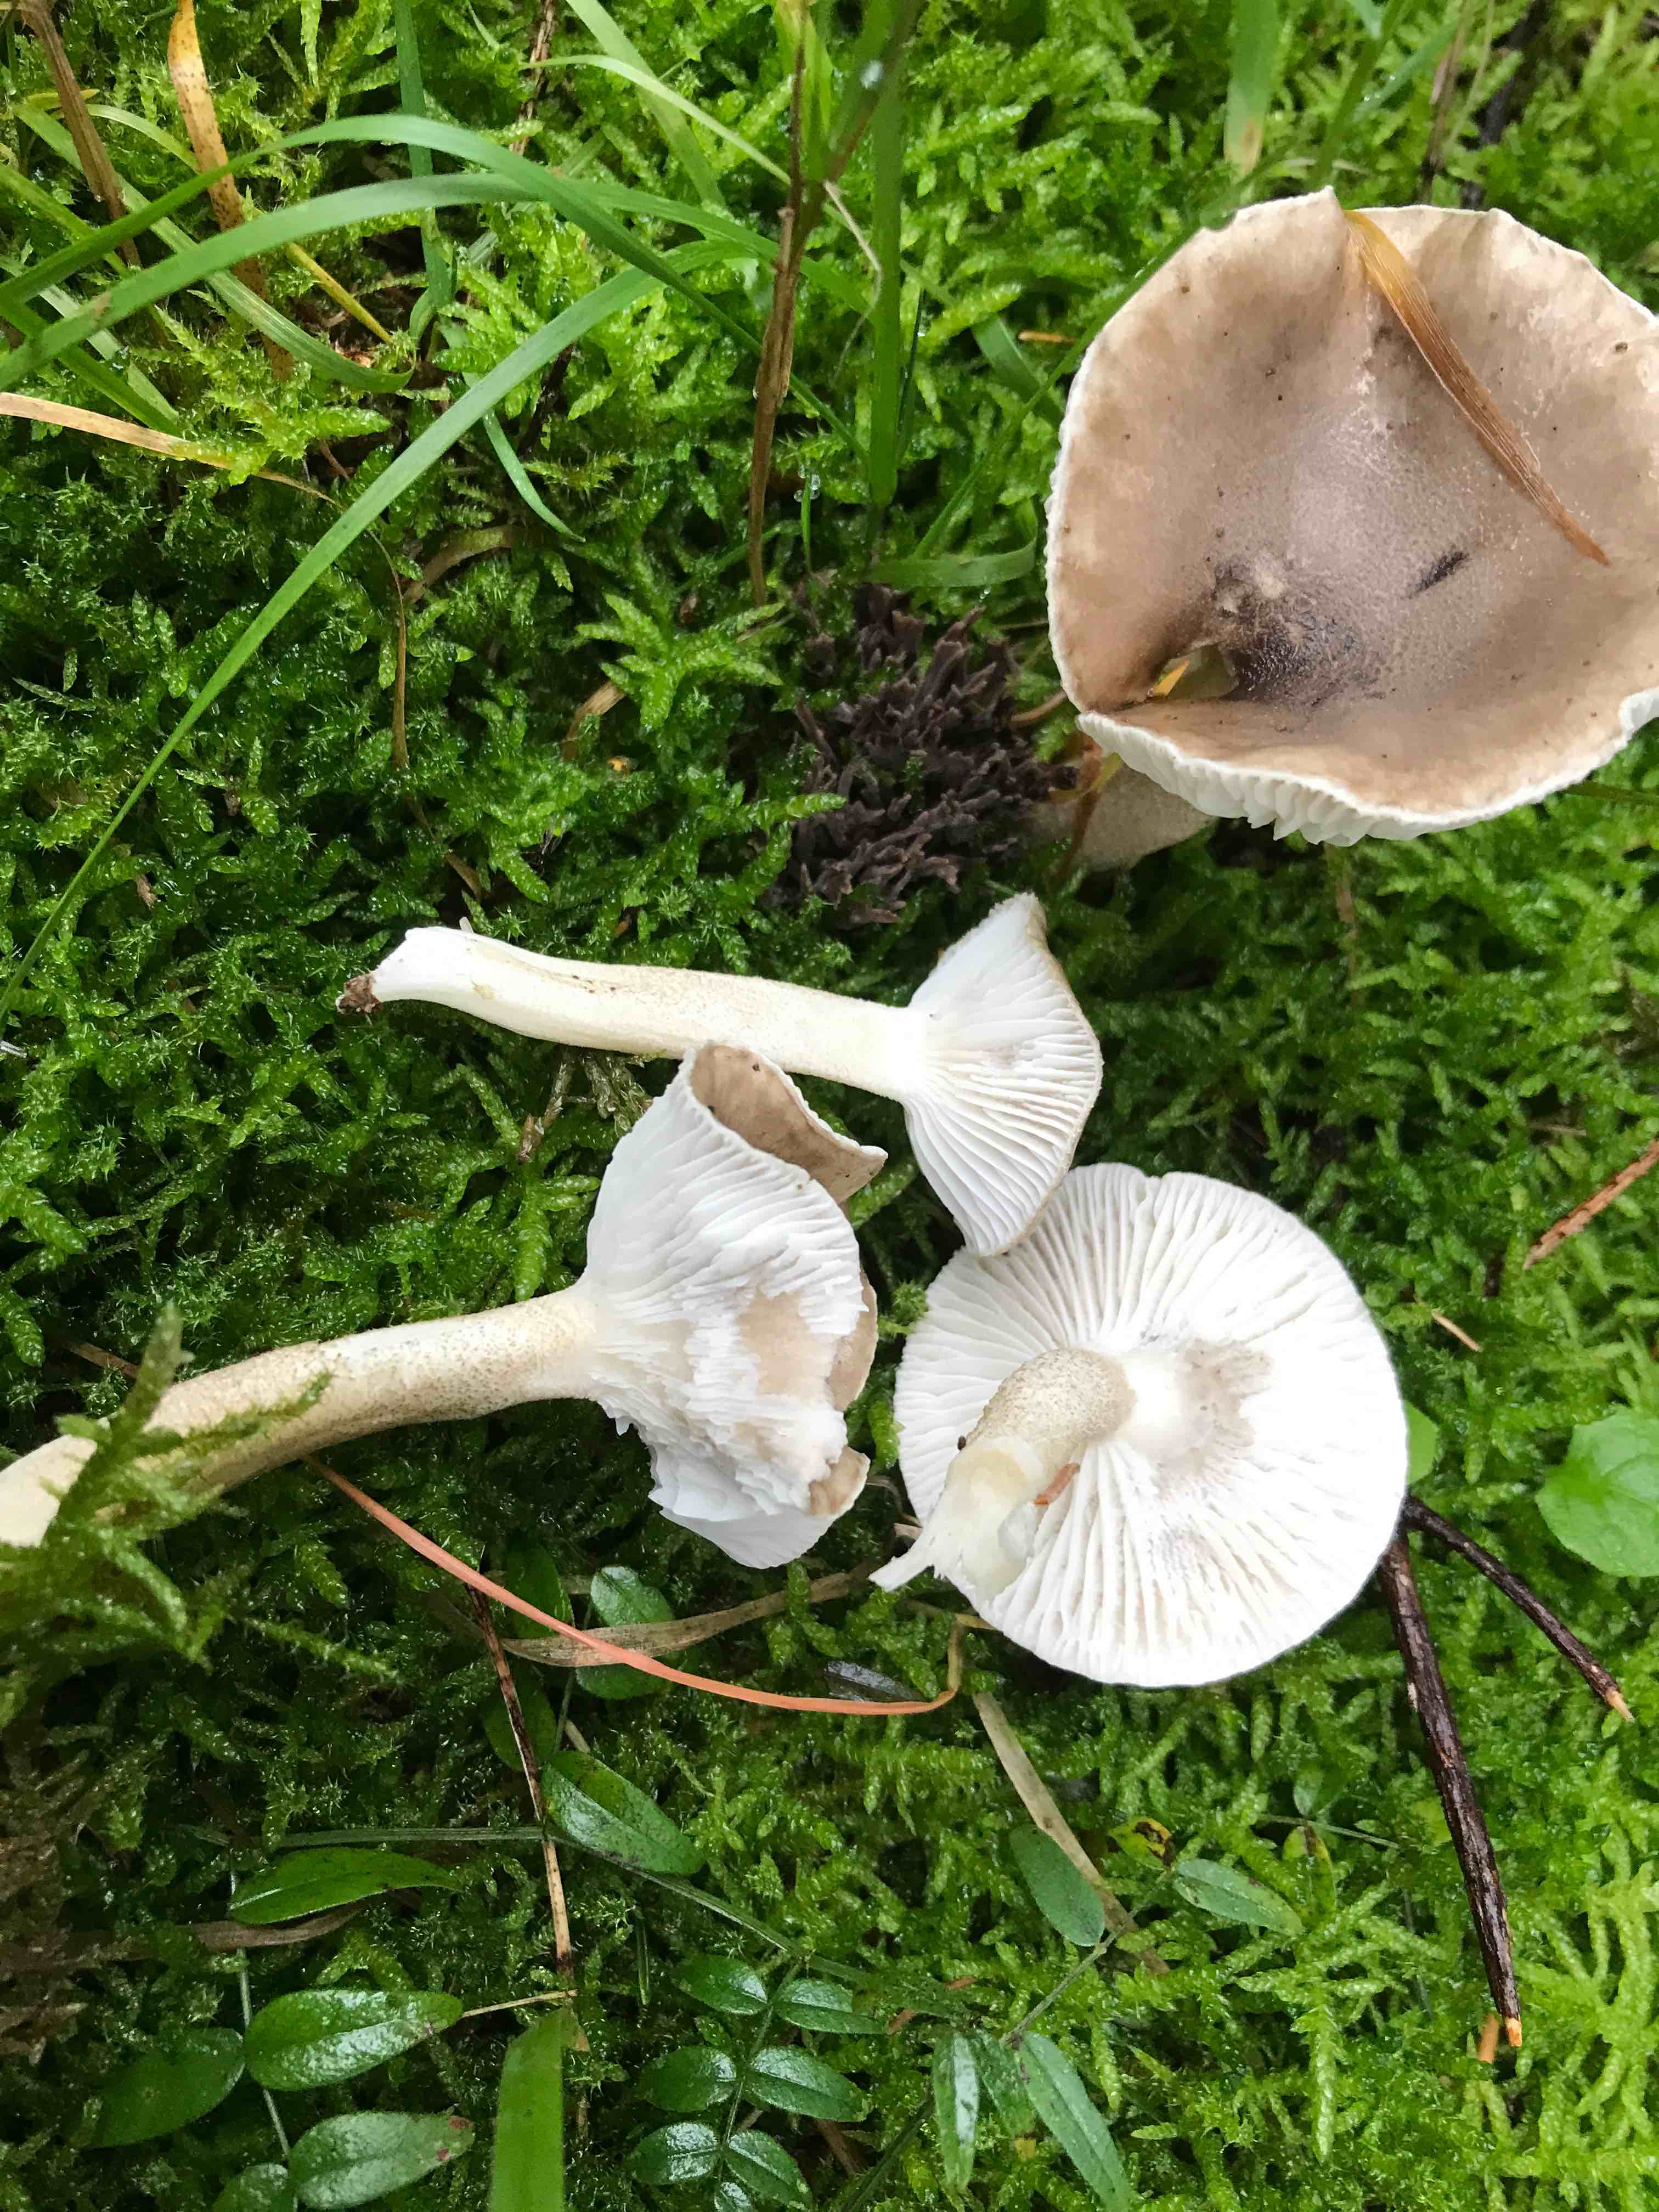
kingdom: Fungi
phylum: Basidiomycota
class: Agaricomycetes
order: Agaricales
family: Hygrophoraceae
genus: Hygrophorus
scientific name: Hygrophorus pustulatus
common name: mørkprikket sneglehat
